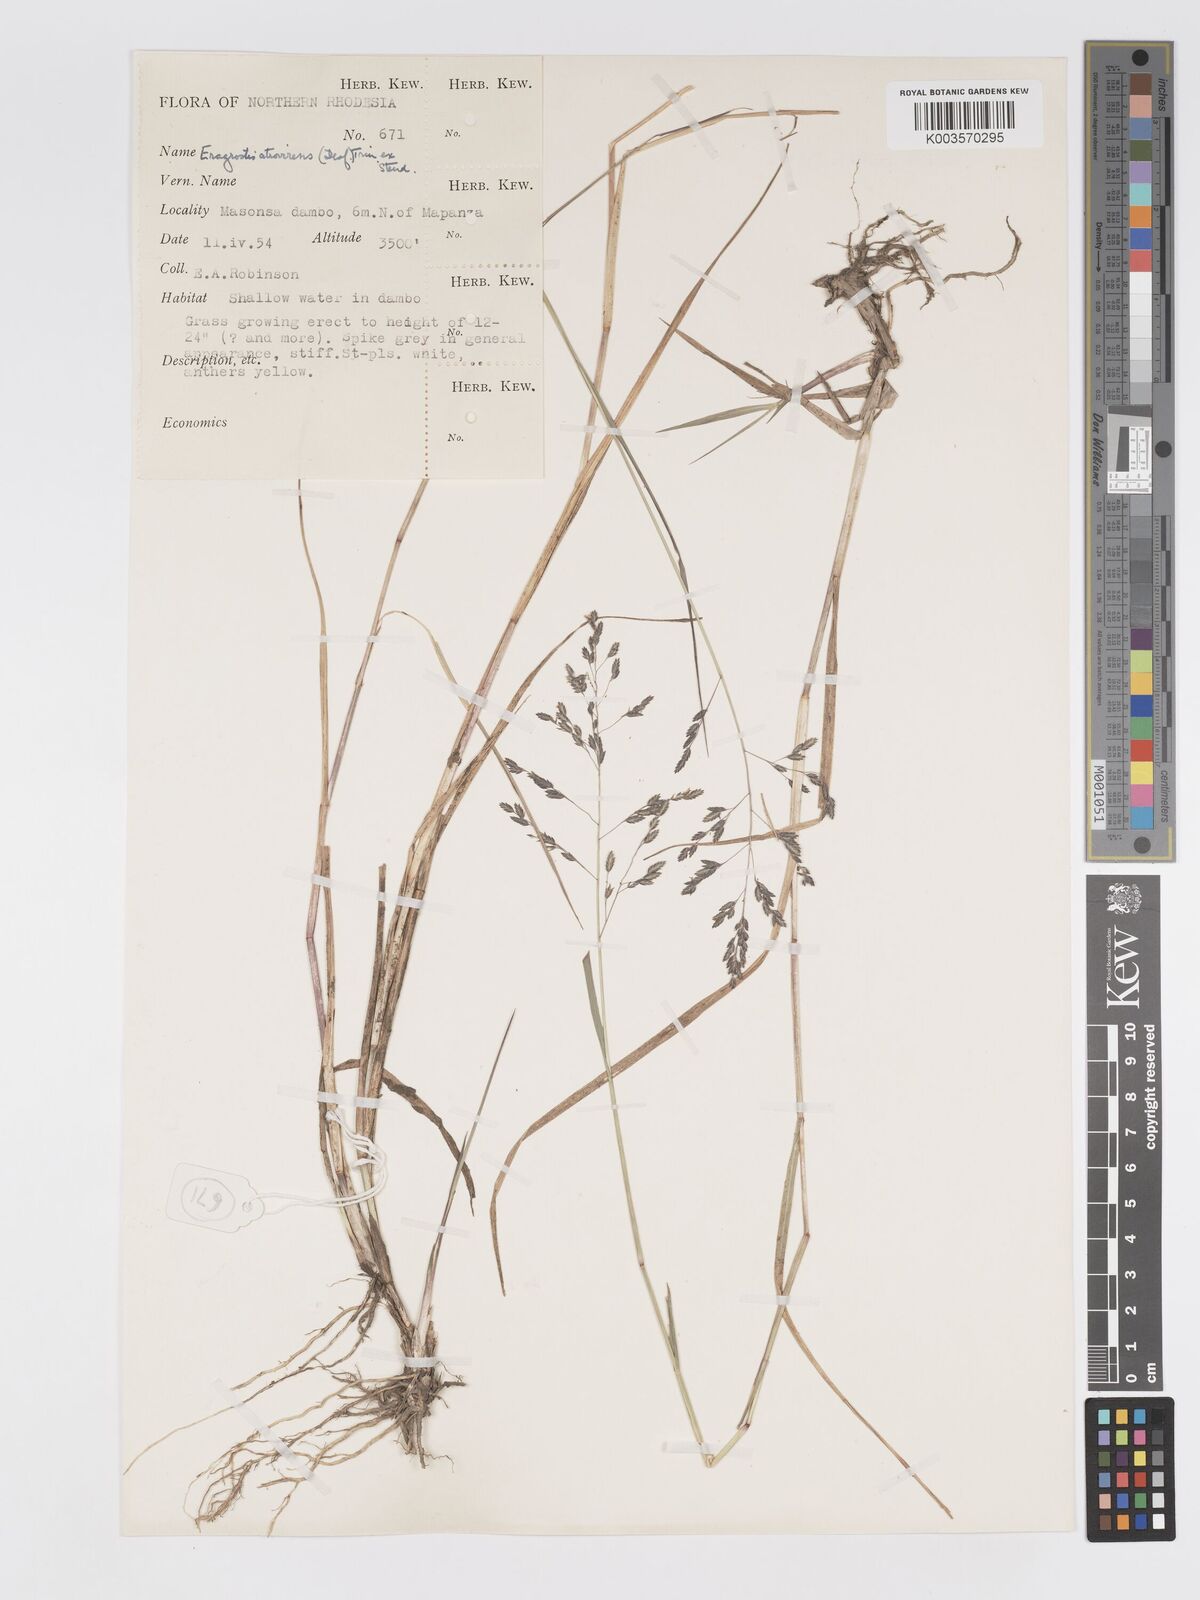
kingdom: Plantae
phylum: Tracheophyta
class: Liliopsida
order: Poales
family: Poaceae
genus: Eragrostis
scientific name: Eragrostis atrovirens
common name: Thalia lovegrass
